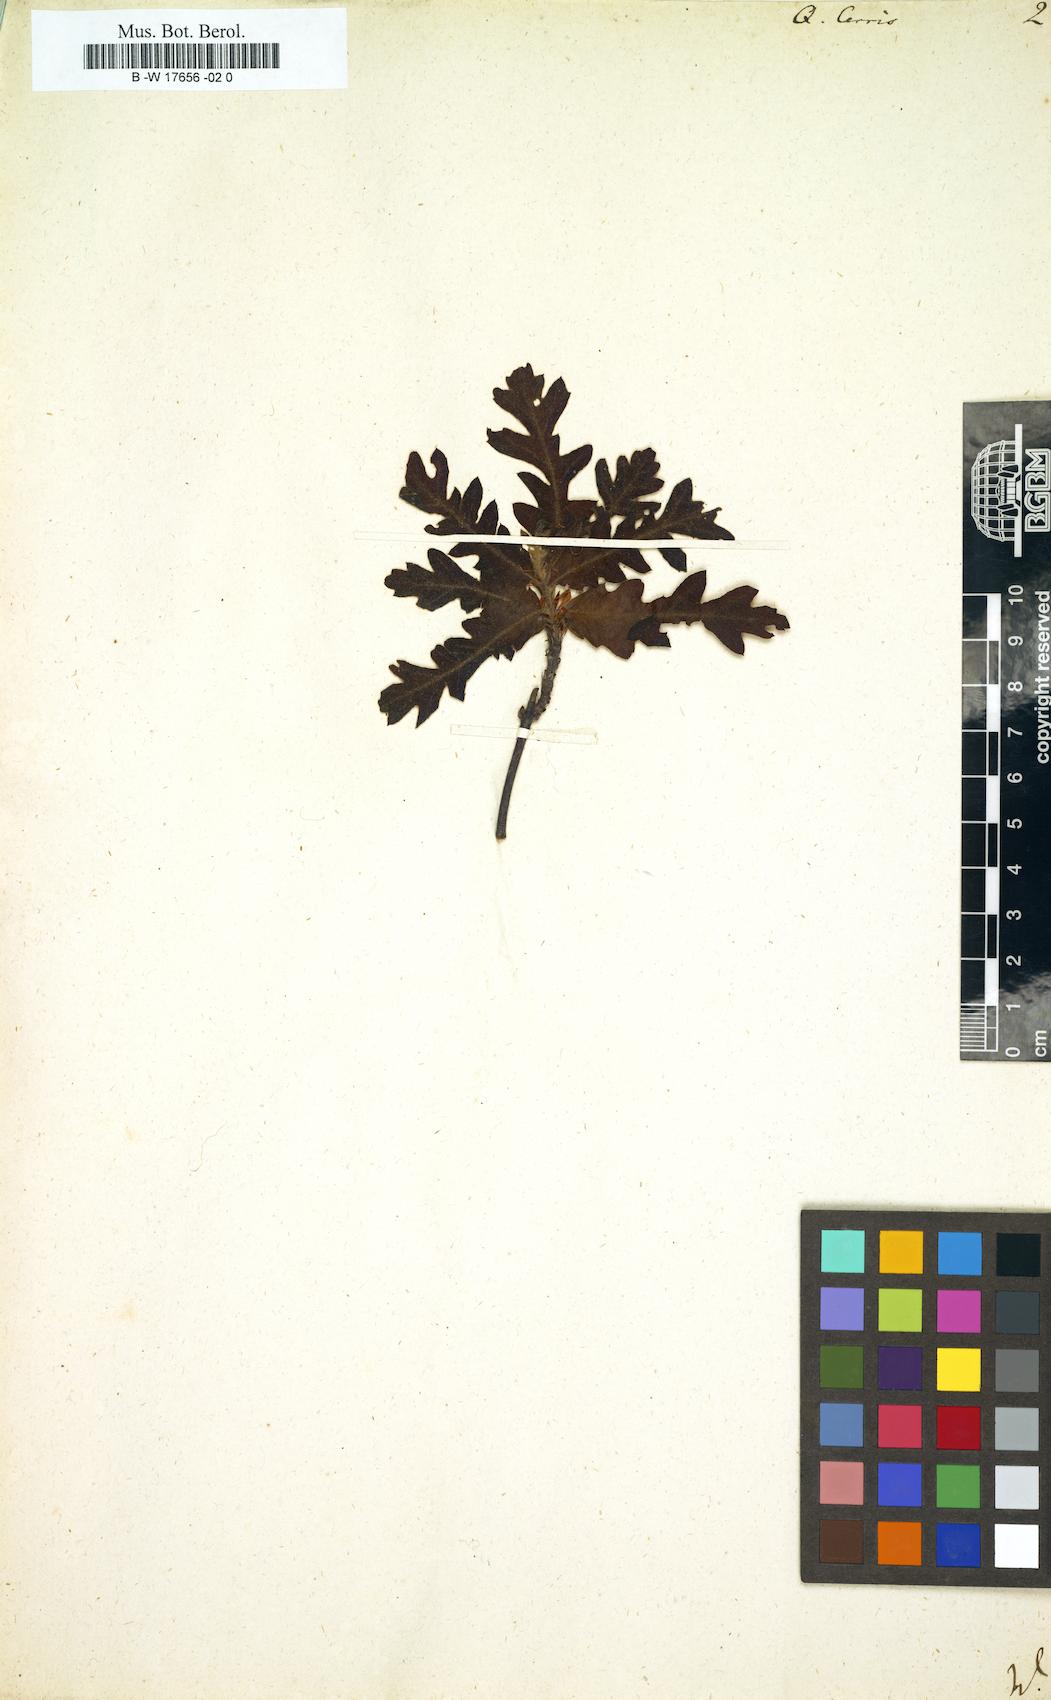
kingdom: Plantae
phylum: Tracheophyta
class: Magnoliopsida
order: Fagales
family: Fagaceae
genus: Quercus
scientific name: Quercus cerris
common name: Turkey oak
